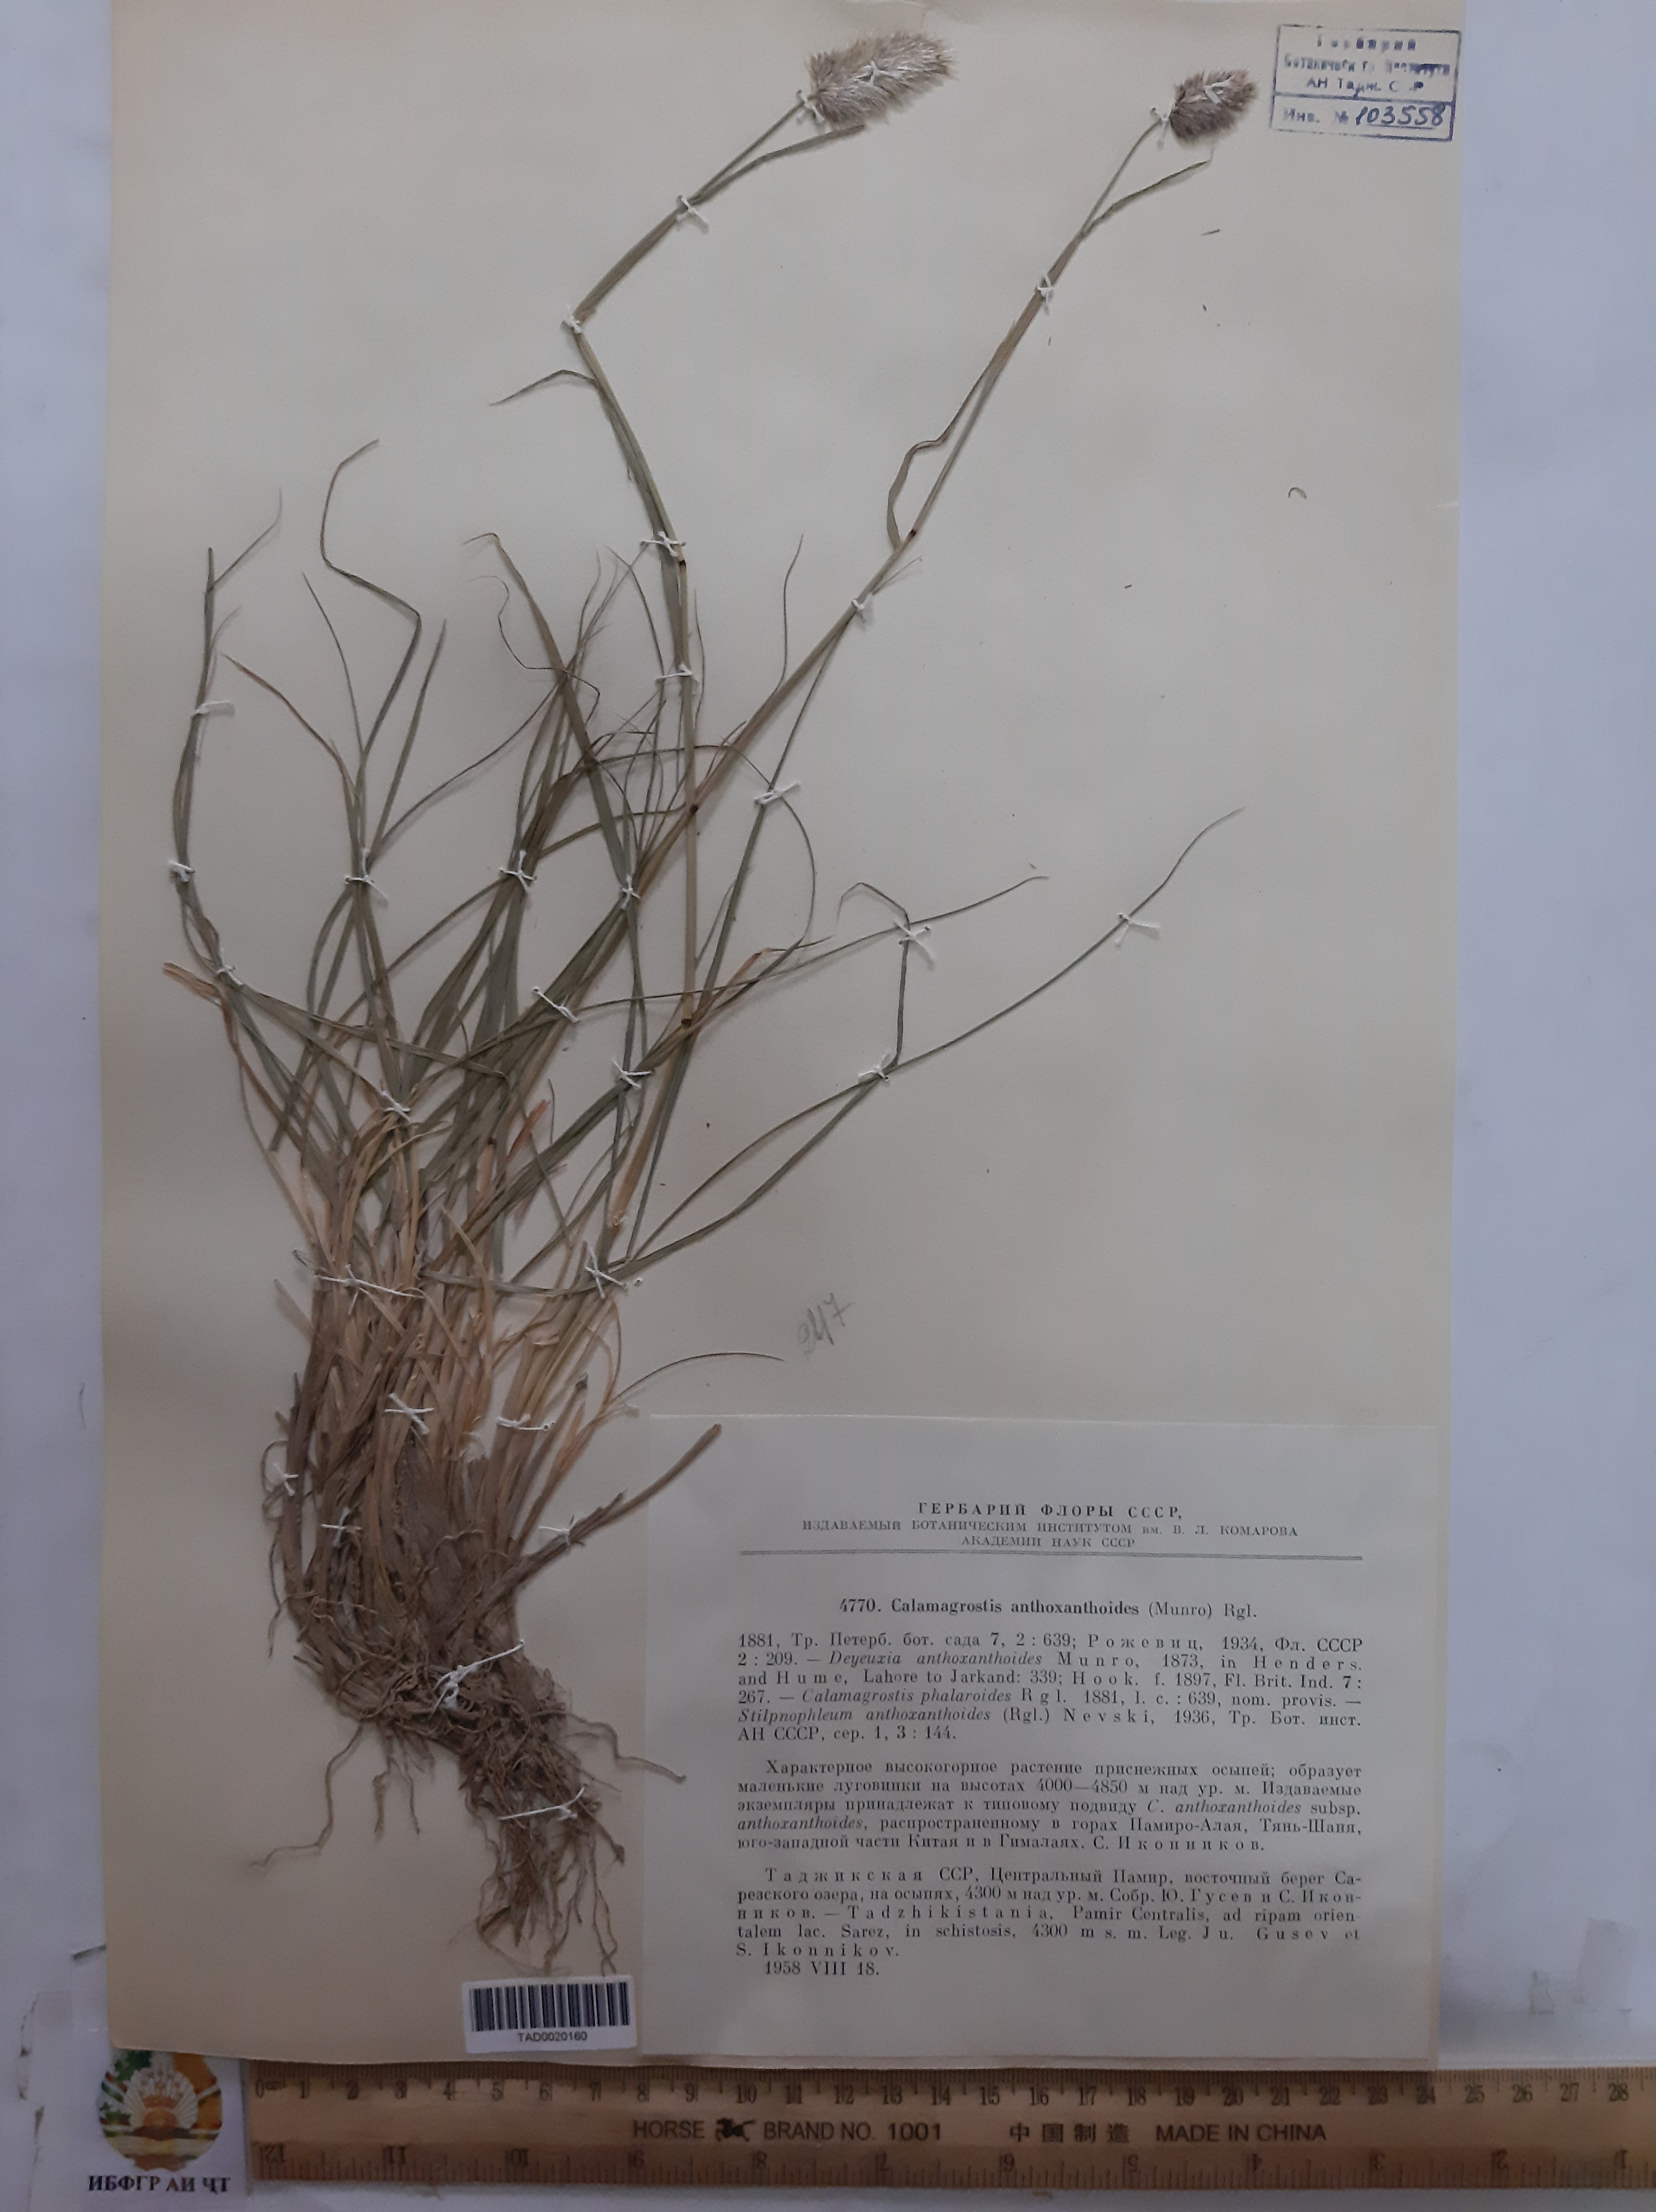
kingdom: Plantae
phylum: Tracheophyta
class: Liliopsida
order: Poales
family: Poaceae
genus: Calamagrostis
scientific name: Calamagrostis anthoxanthoides
